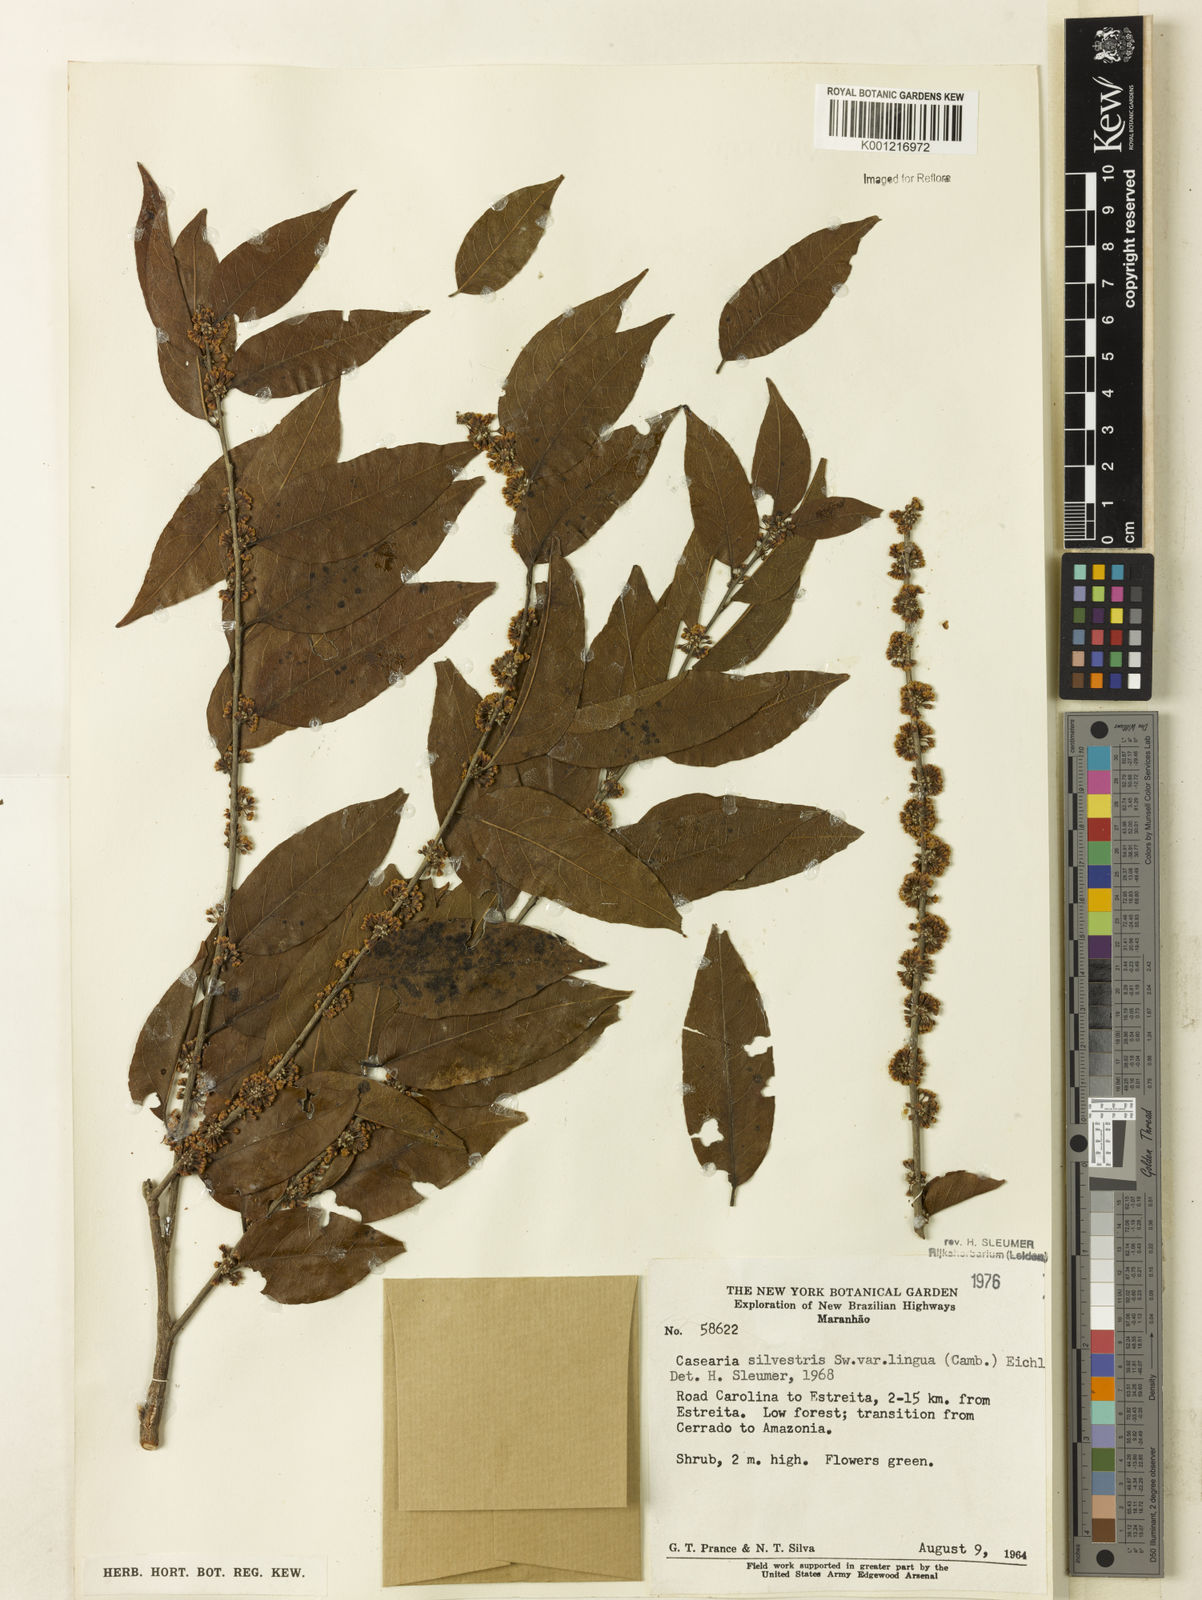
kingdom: Plantae
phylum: Tracheophyta
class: Magnoliopsida
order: Malpighiales
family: Salicaceae
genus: Casearia
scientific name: Casearia sylvestris
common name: Wild sage
